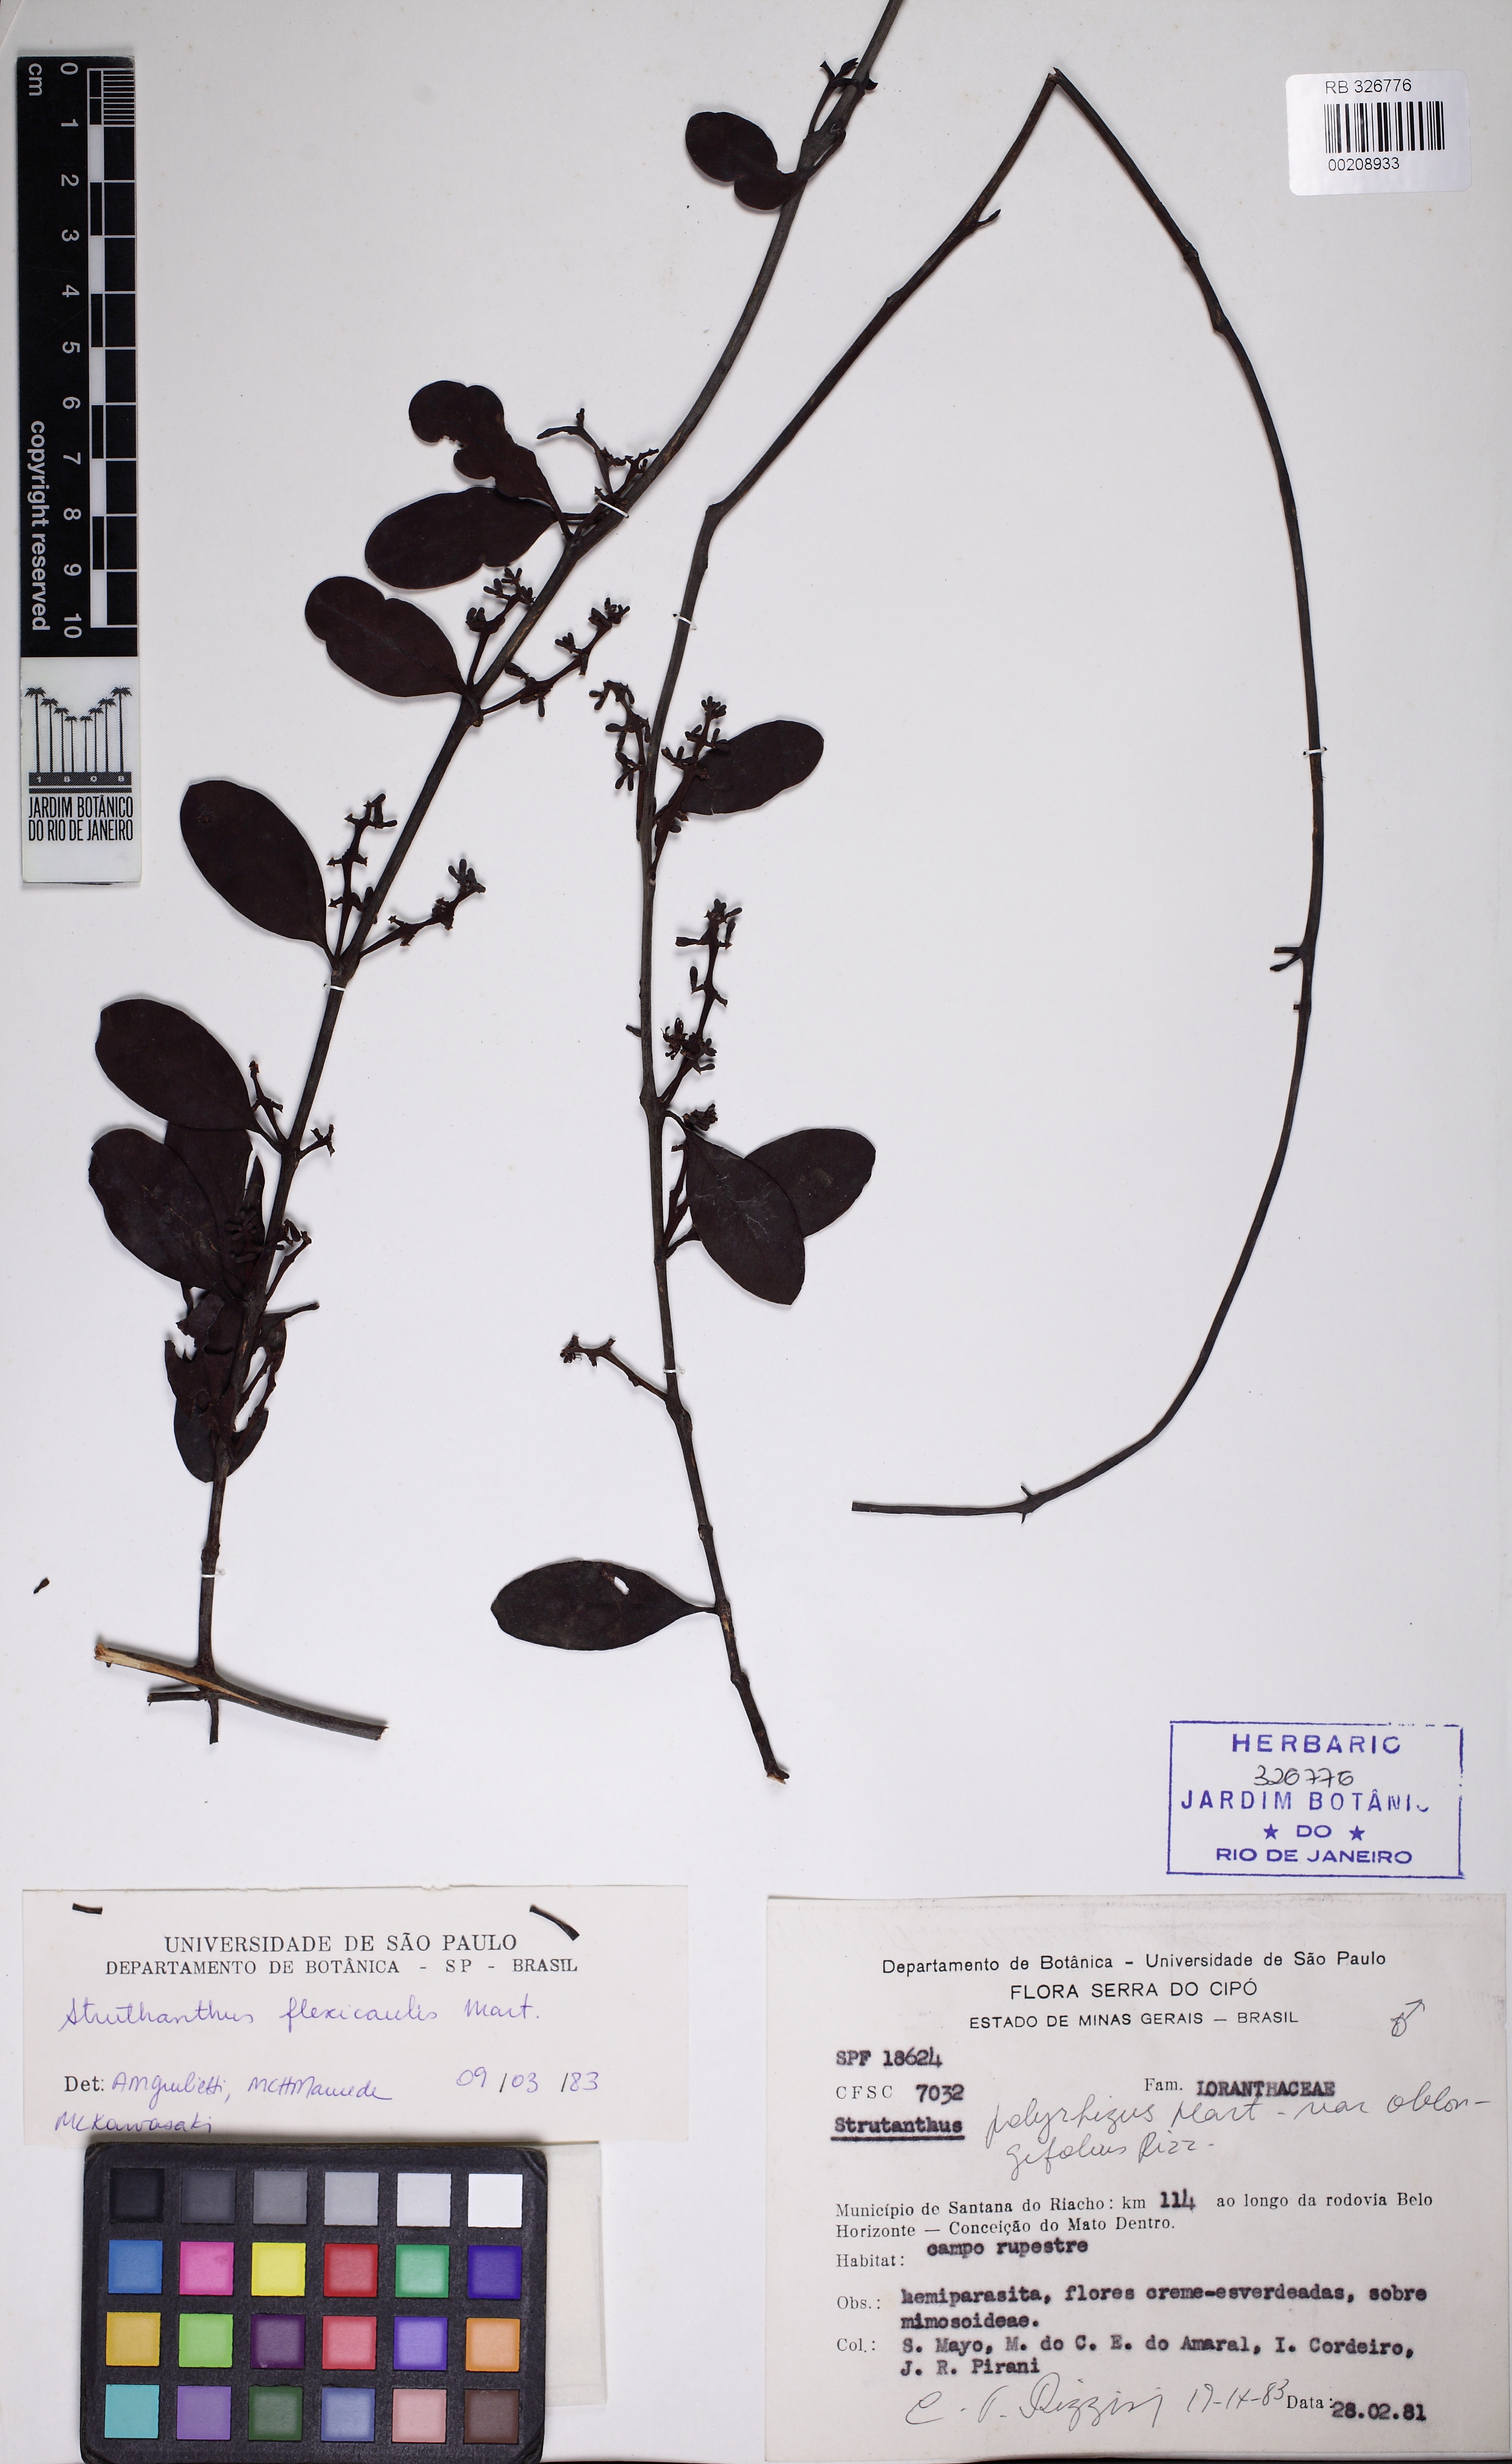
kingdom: Plantae
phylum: Tracheophyta
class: Magnoliopsida
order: Santalales
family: Loranthaceae
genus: Struthanthus
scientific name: Struthanthus flexicaulis
